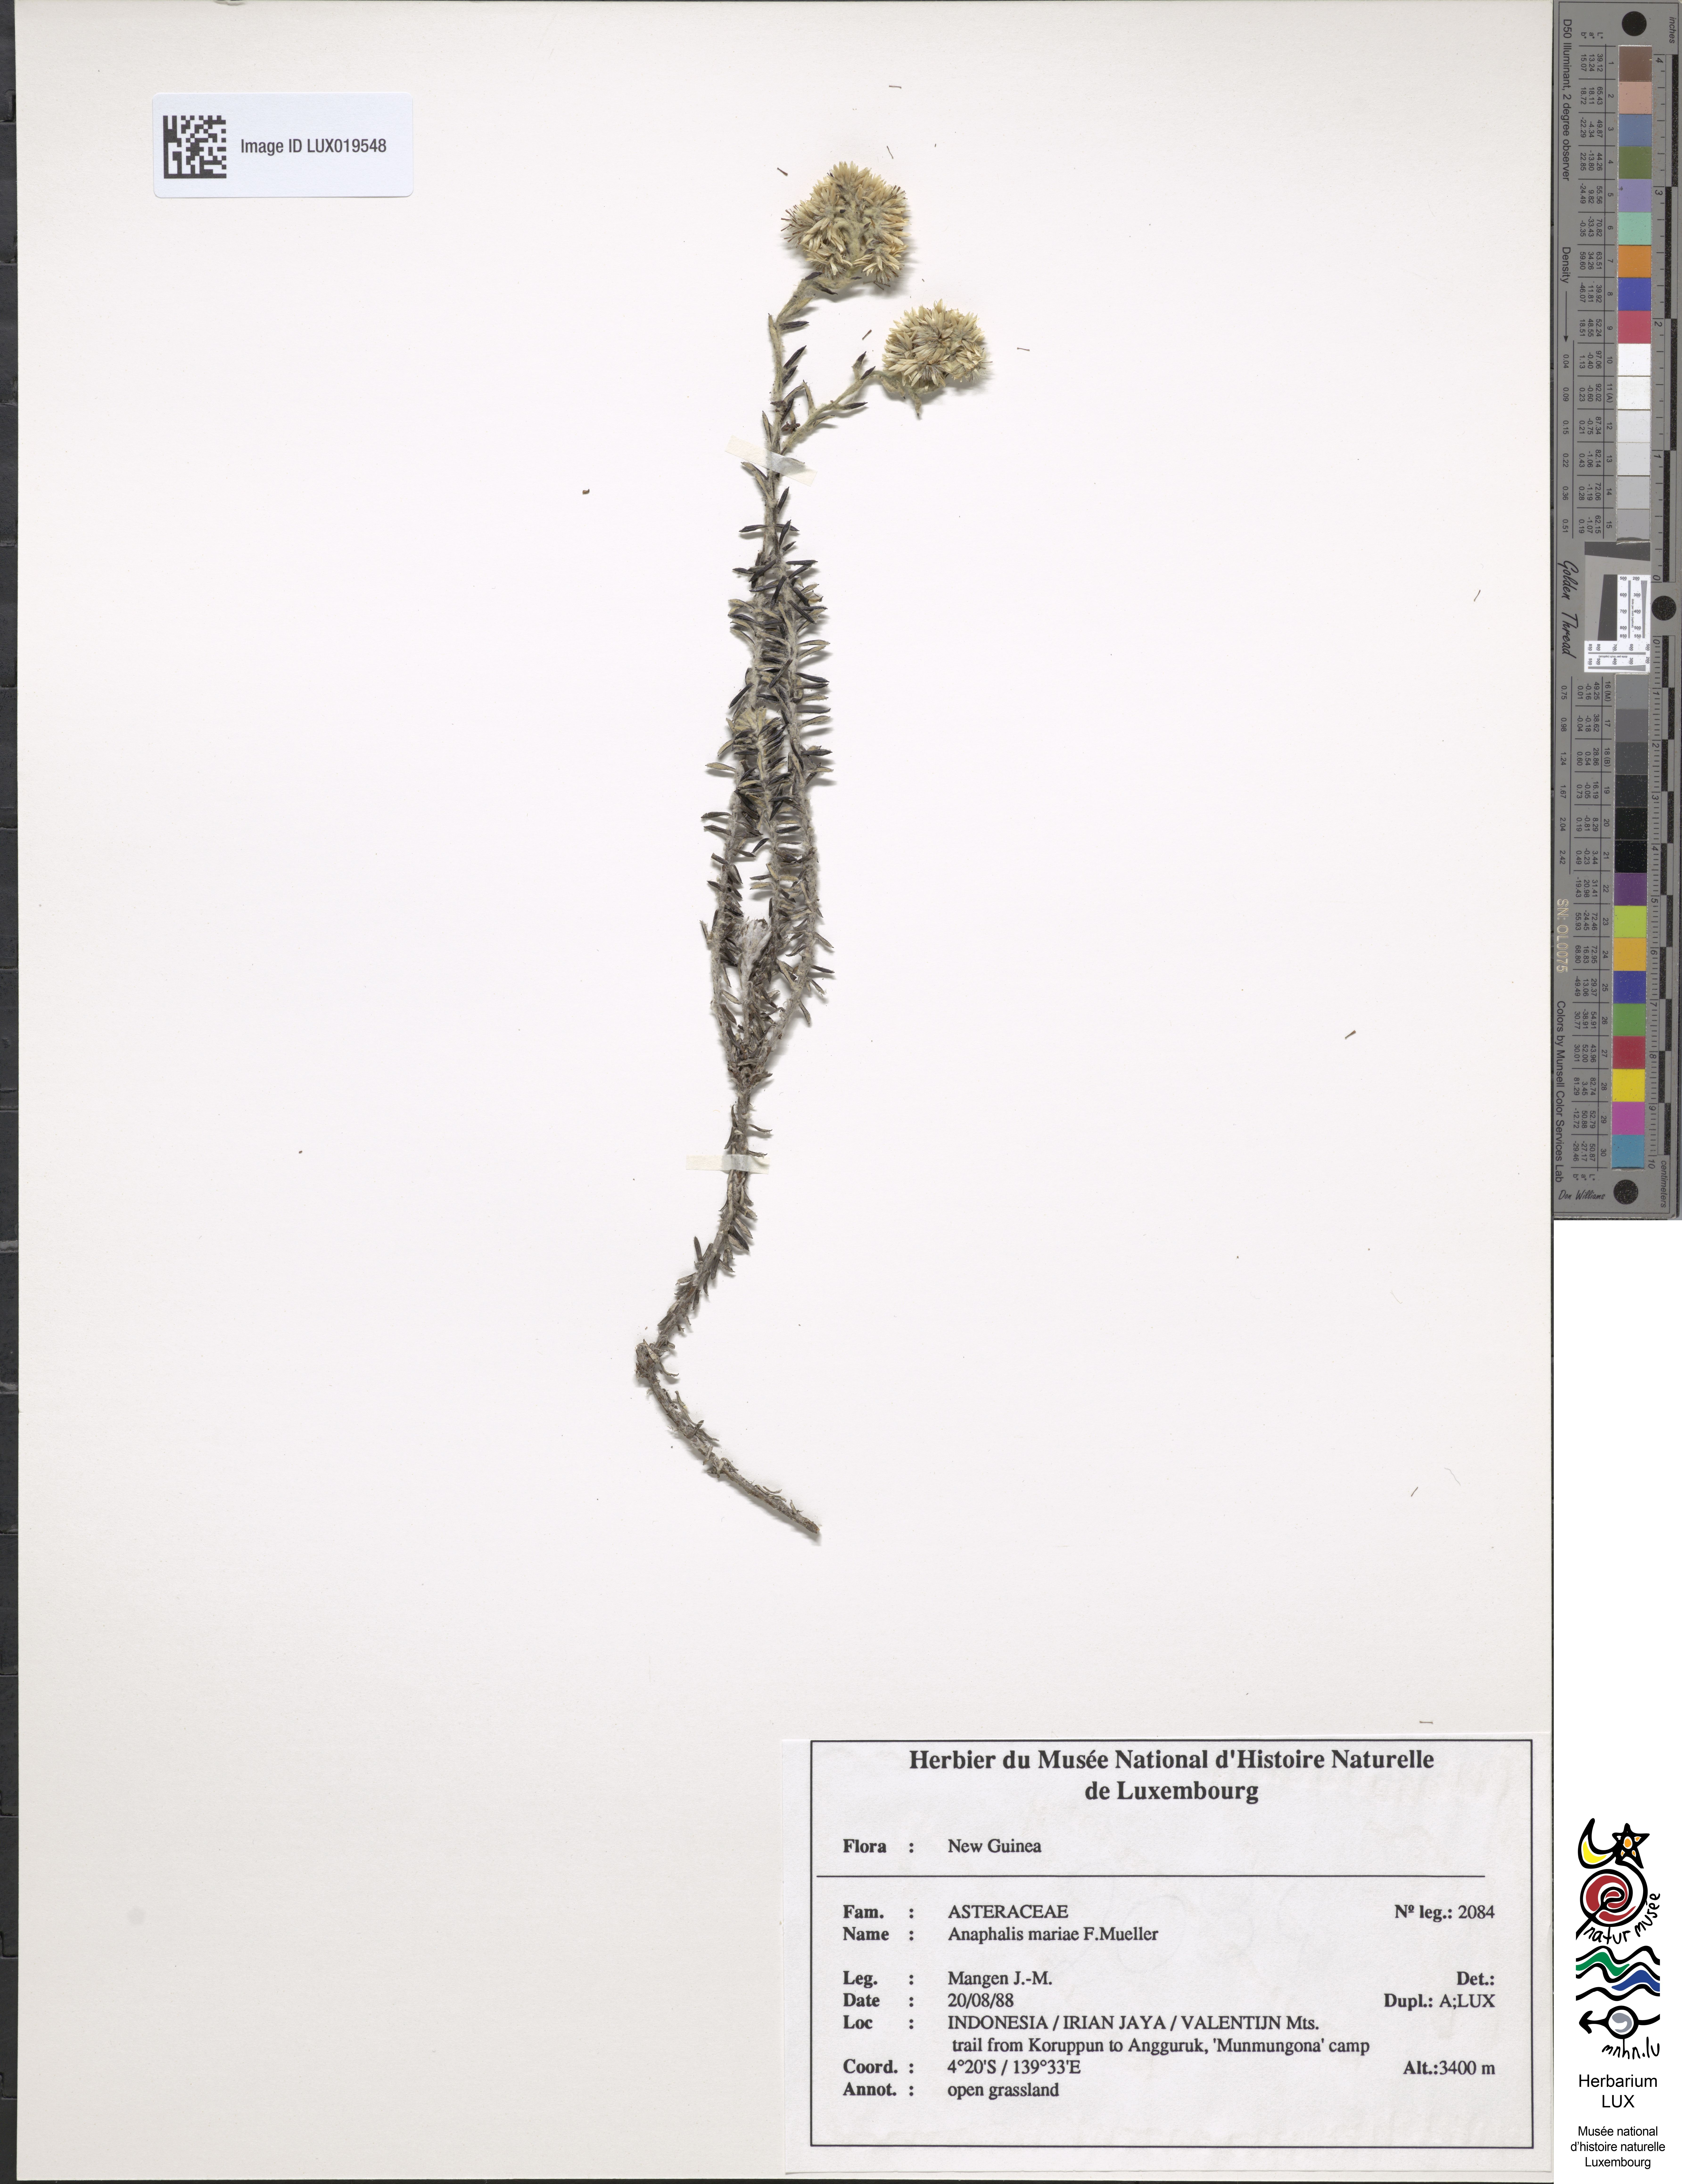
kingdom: Plantae
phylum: Tracheophyta
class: Magnoliopsida
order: Asterales
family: Asteraceae
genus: Anaphalioides
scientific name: Anaphalioides mariae
